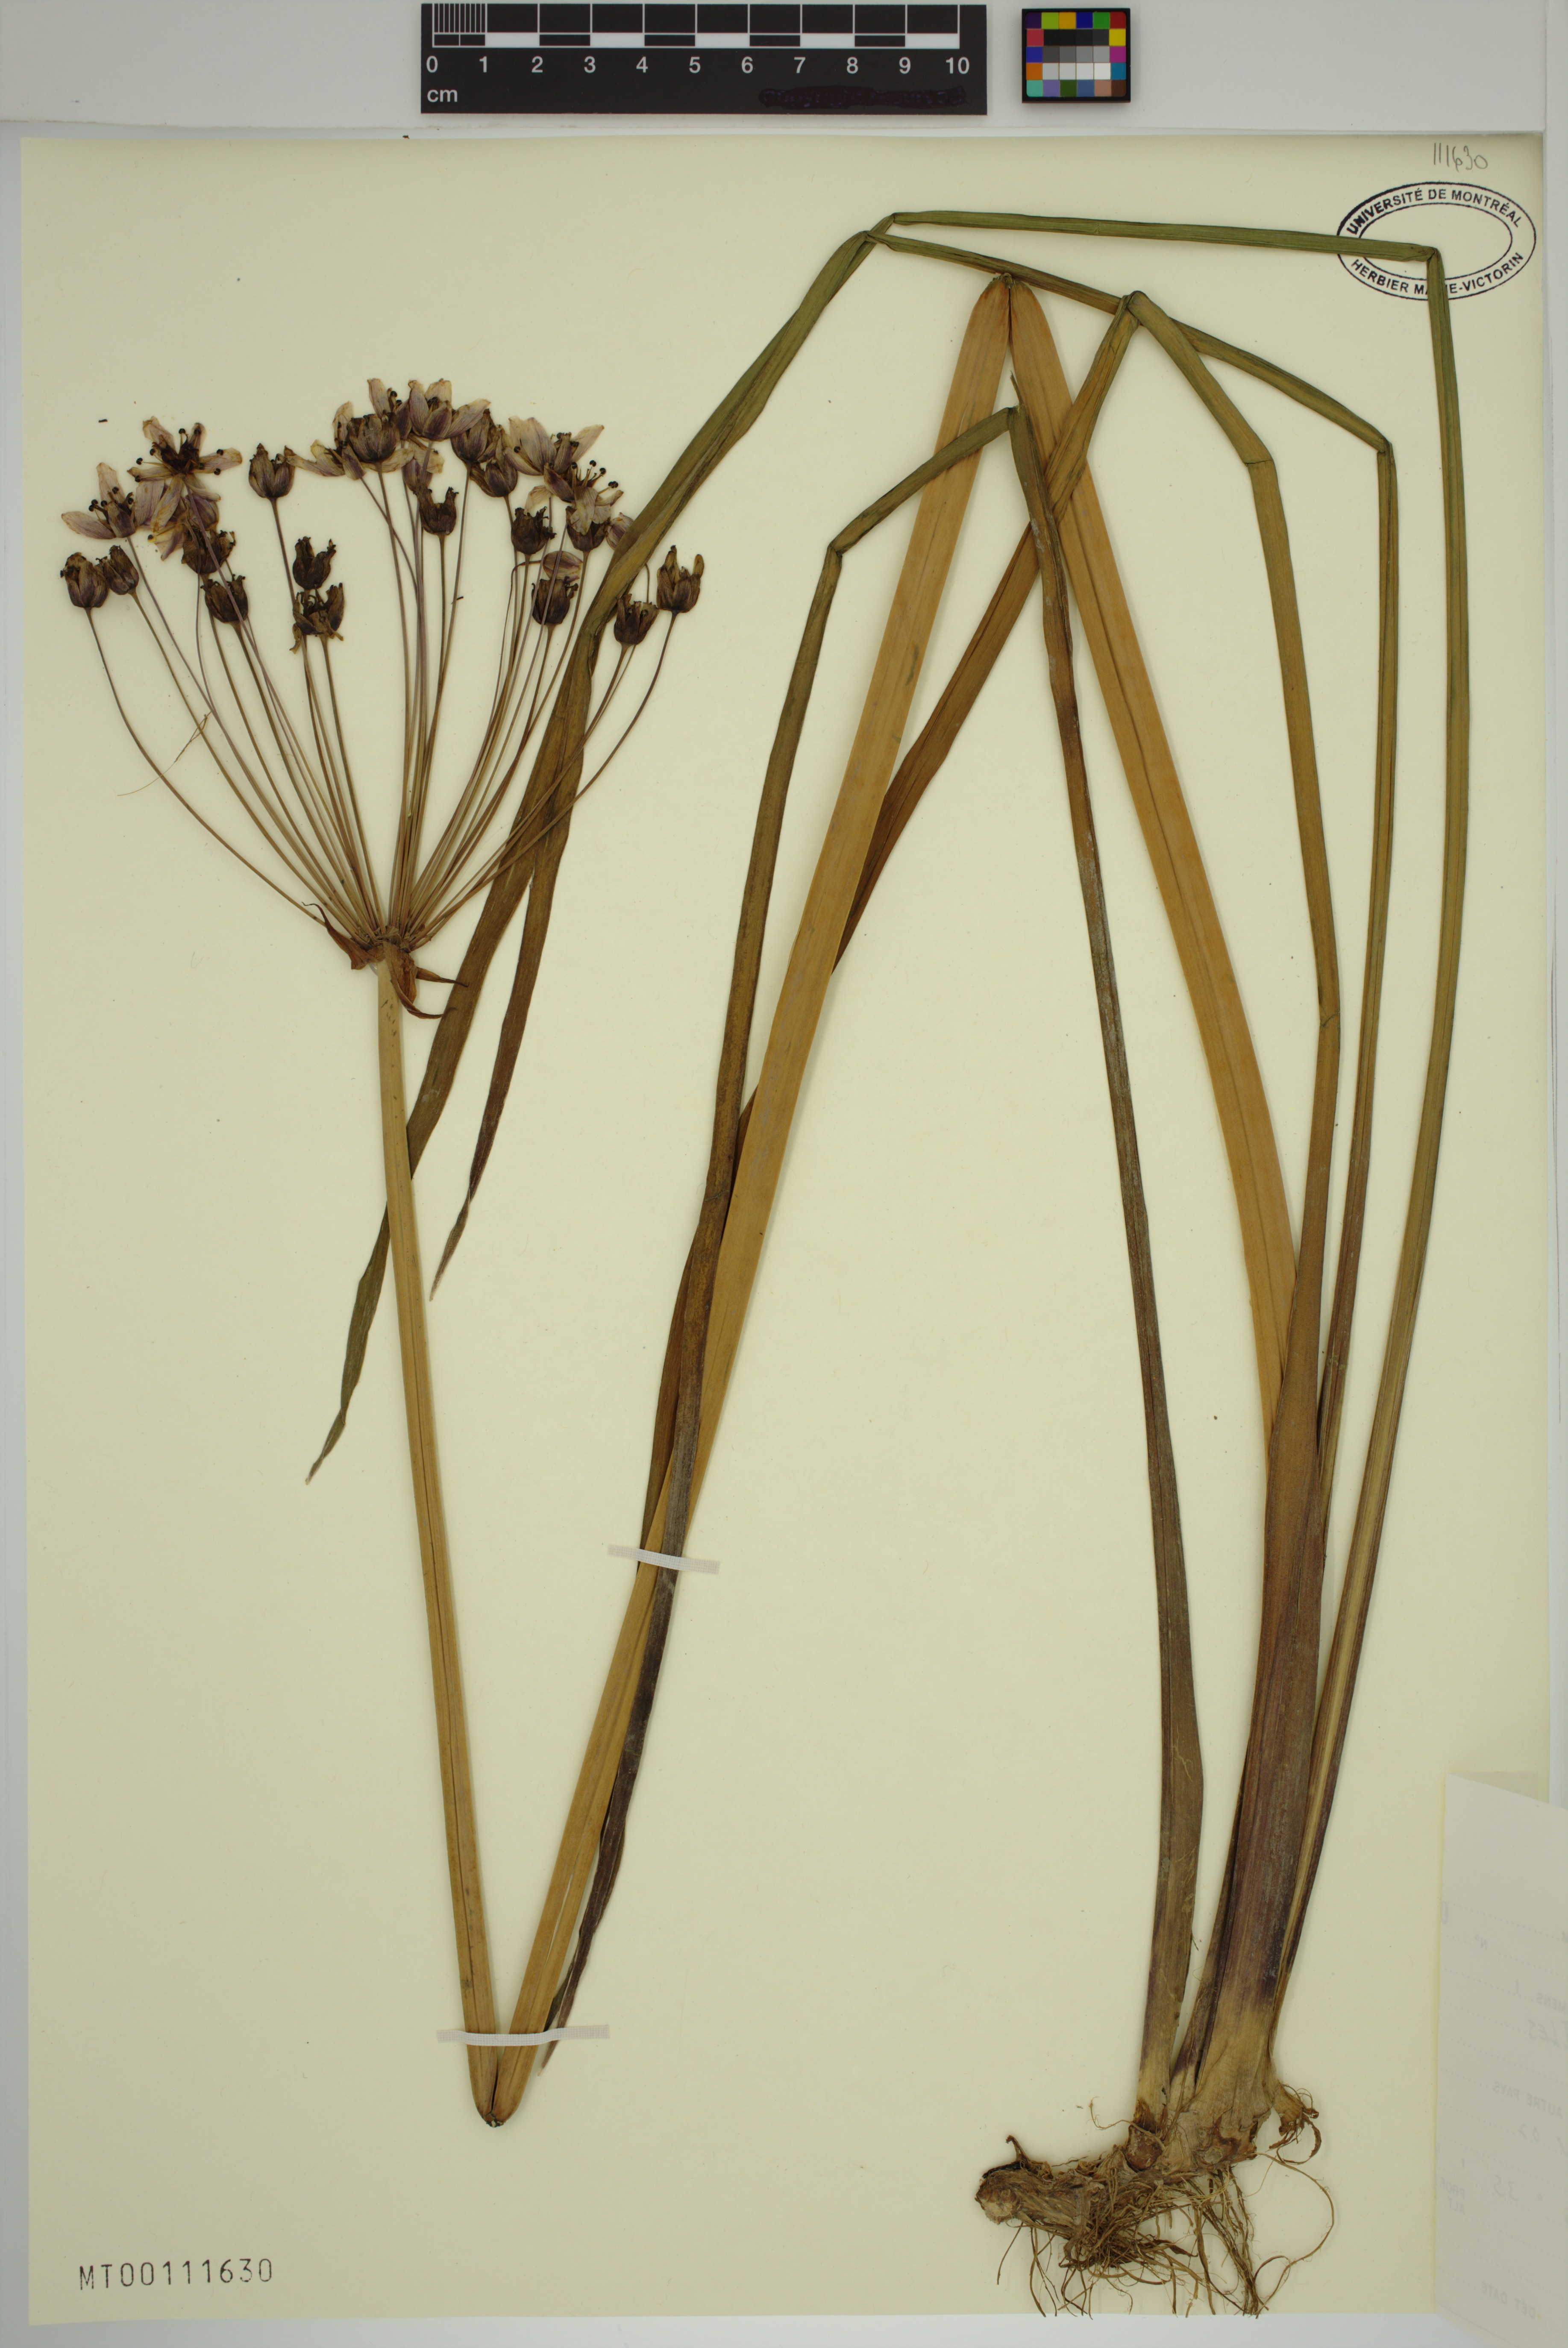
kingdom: Plantae
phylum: Tracheophyta
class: Liliopsida
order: Alismatales
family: Butomaceae
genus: Butomus
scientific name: Butomus umbellatus
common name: Flowering-rush
